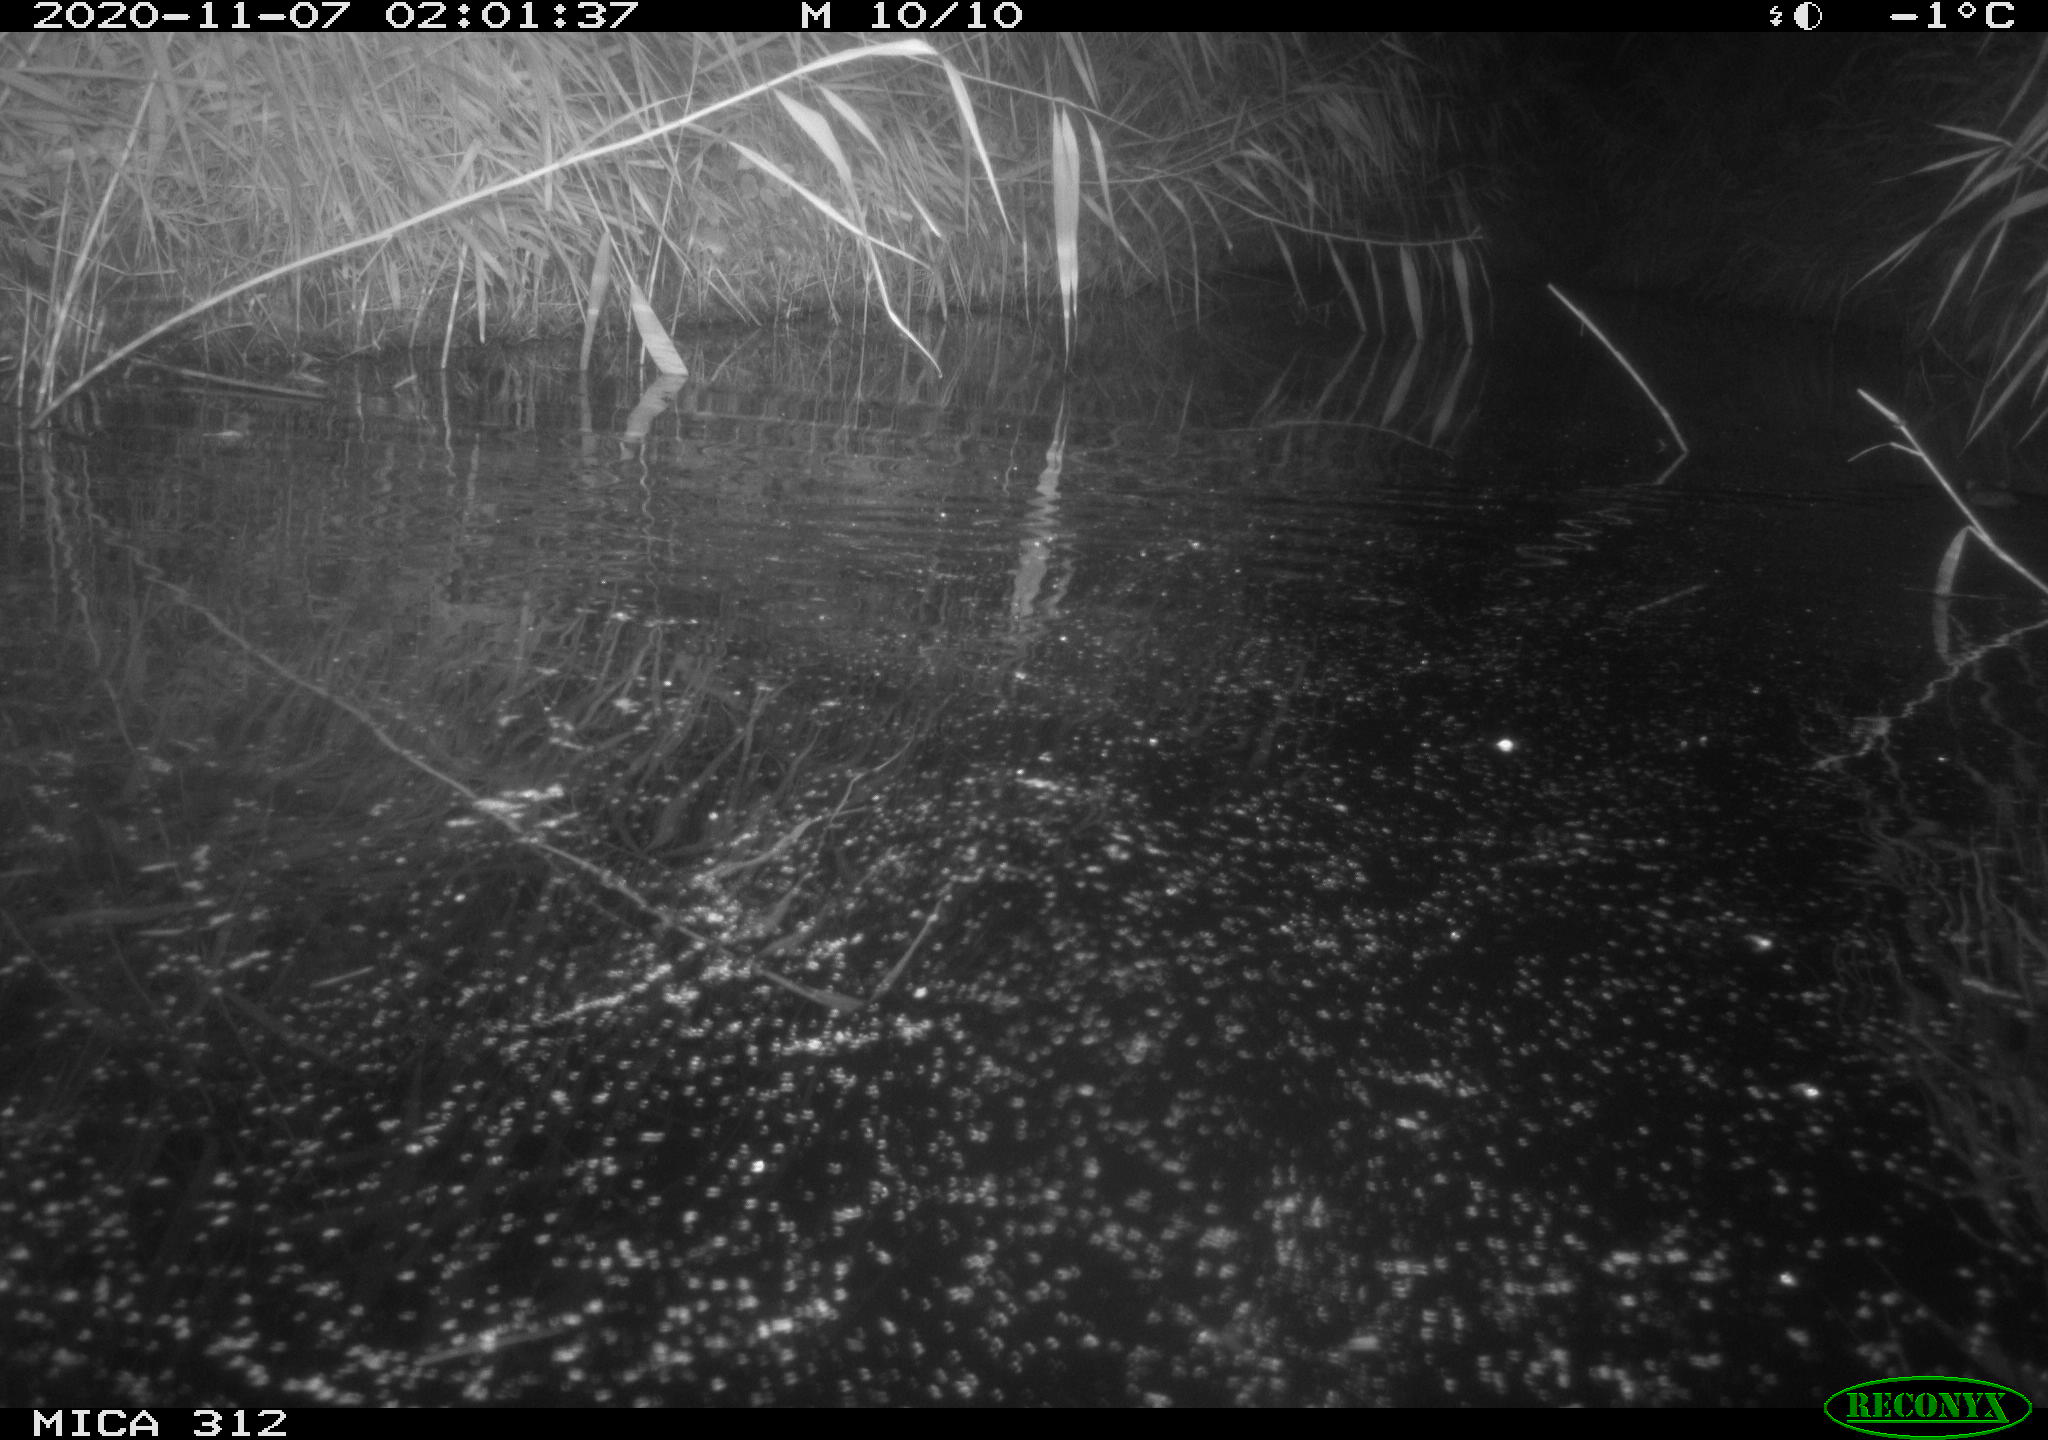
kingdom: Animalia
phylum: Chordata
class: Mammalia
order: Rodentia
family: Muridae
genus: Rattus
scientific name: Rattus norvegicus
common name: Brown rat
